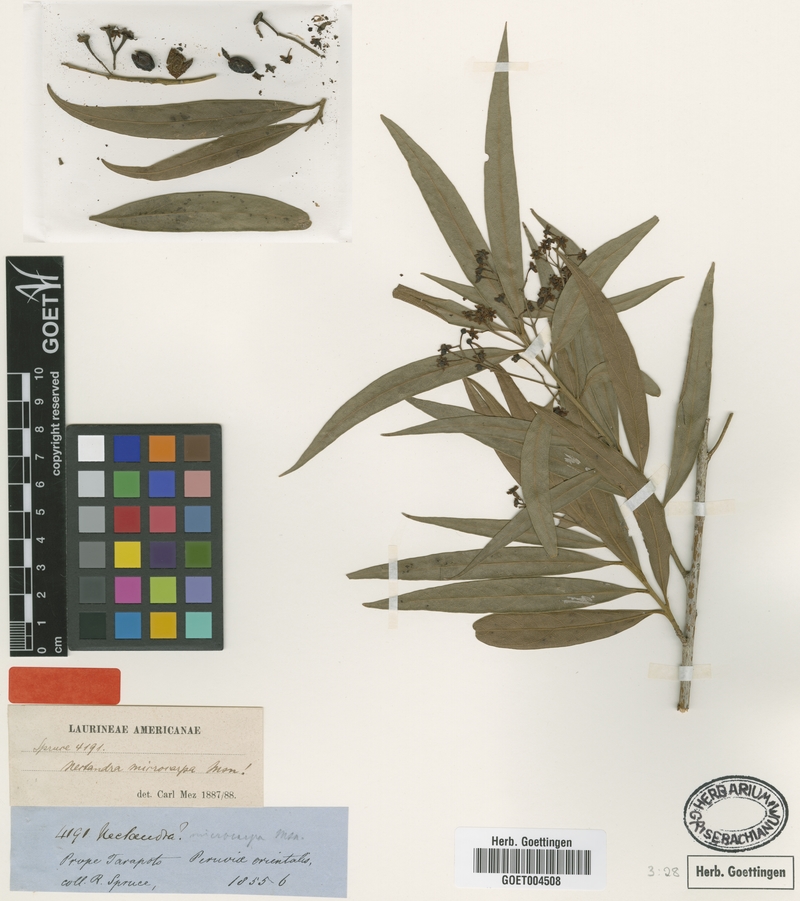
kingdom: Plantae
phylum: Tracheophyta
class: Magnoliopsida
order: Laurales
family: Lauraceae
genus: Nectandra
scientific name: Nectandra microcarpa
